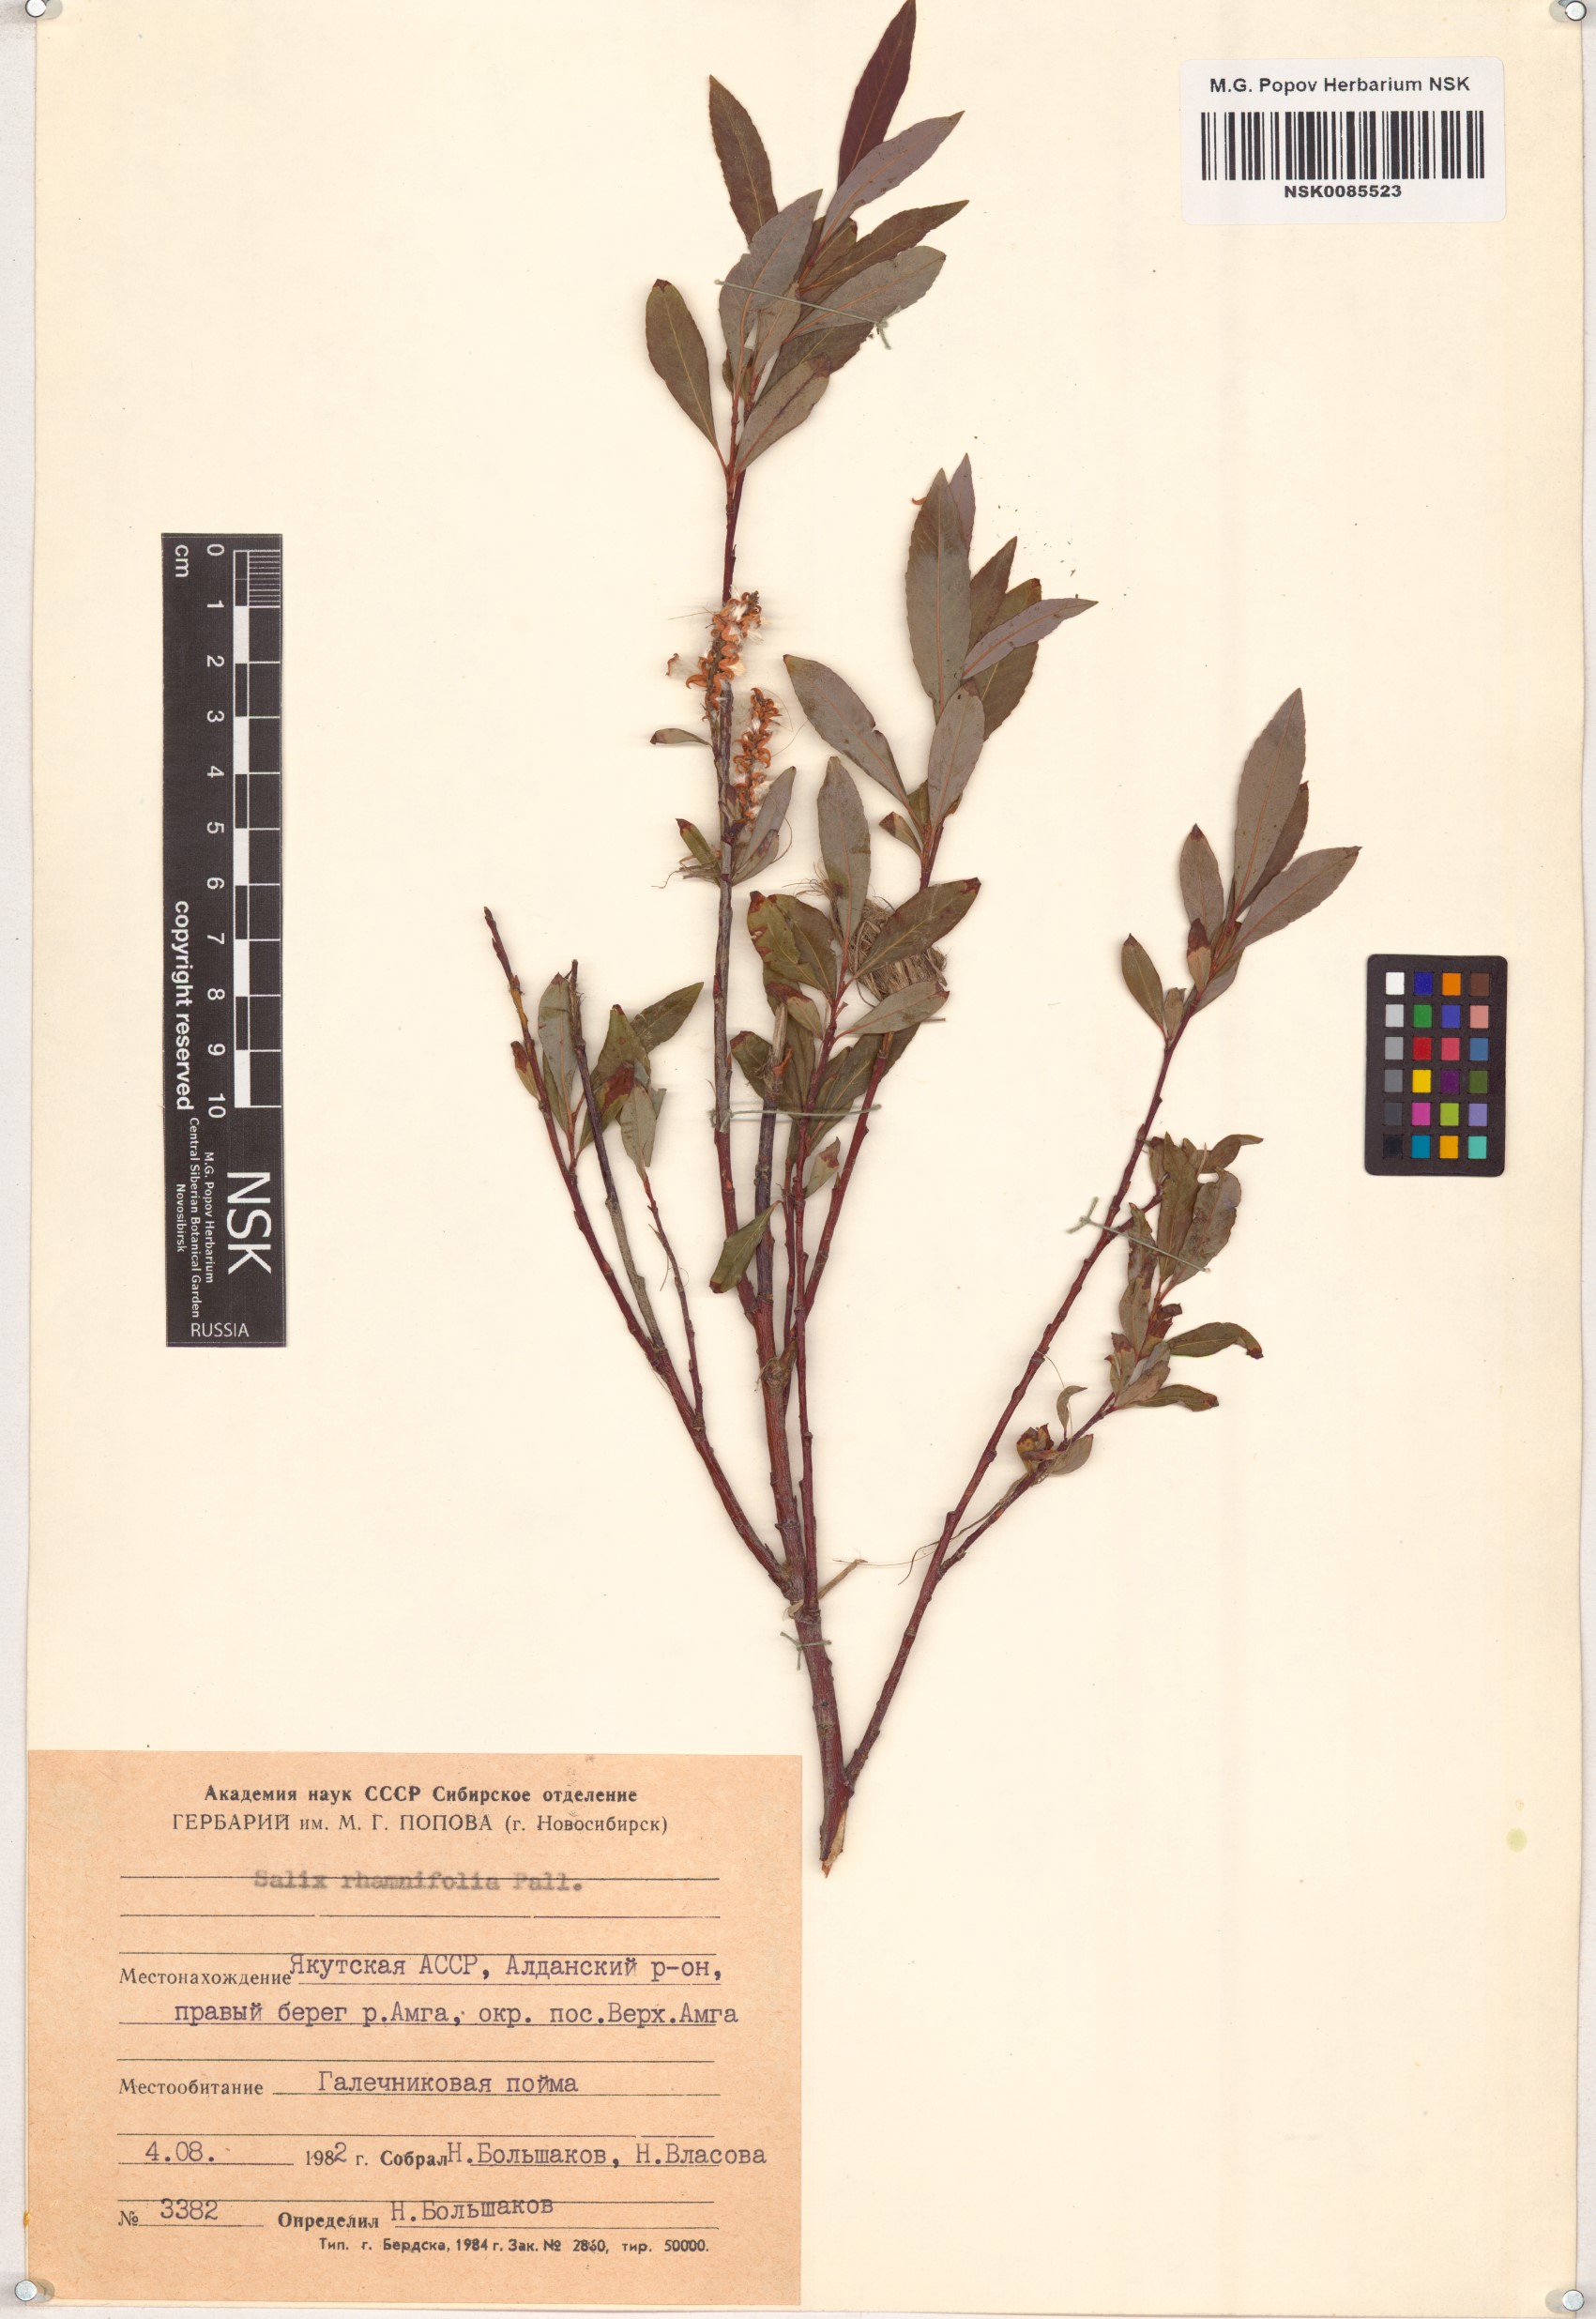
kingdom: Plantae
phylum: Tracheophyta
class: Magnoliopsida
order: Malpighiales
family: Salicaceae
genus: Salix
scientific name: Salix rhamnifolia
